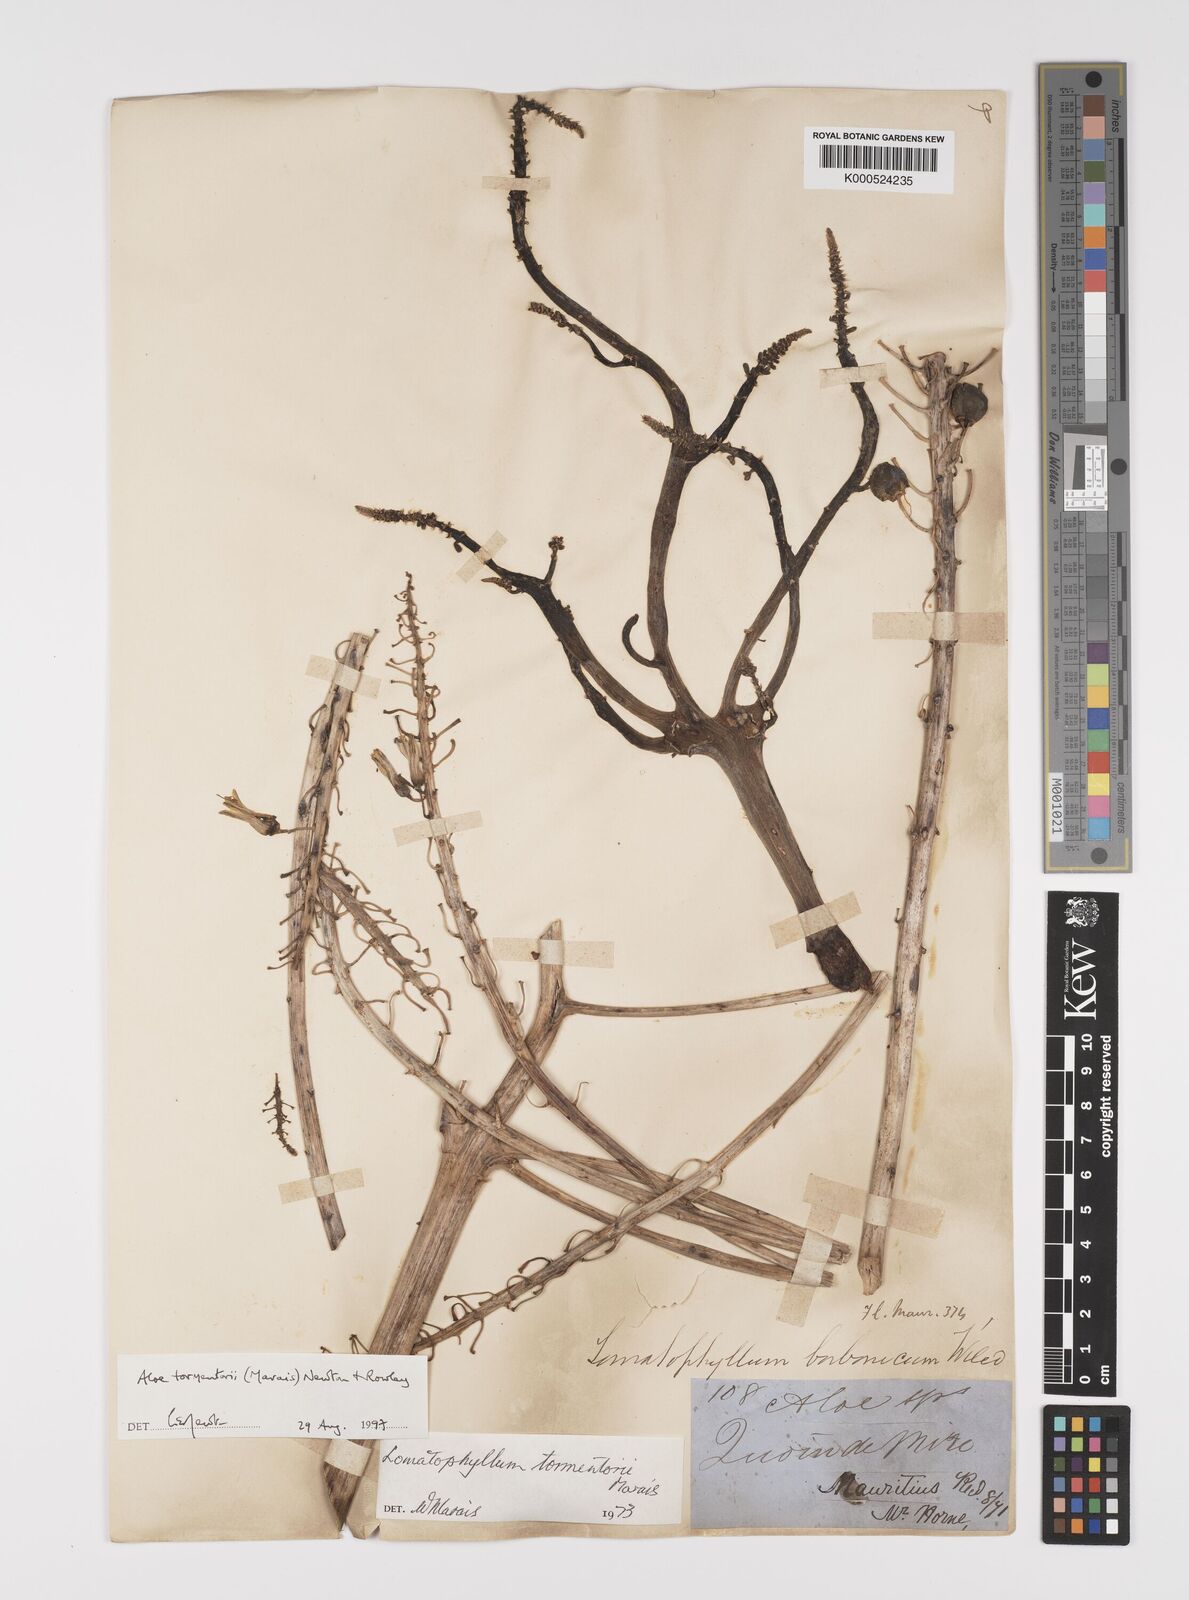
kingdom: Plantae
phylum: Tracheophyta
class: Liliopsida
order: Asparagales
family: Asphodelaceae
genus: Aloe
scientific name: Aloe tormentorii
